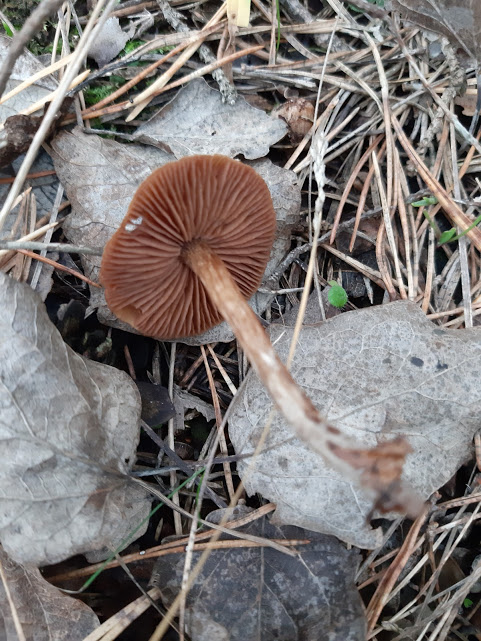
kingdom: Fungi
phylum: Basidiomycota
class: Agaricomycetes
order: Agaricales
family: Cortinariaceae
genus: Cortinarius
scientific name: Cortinarius
